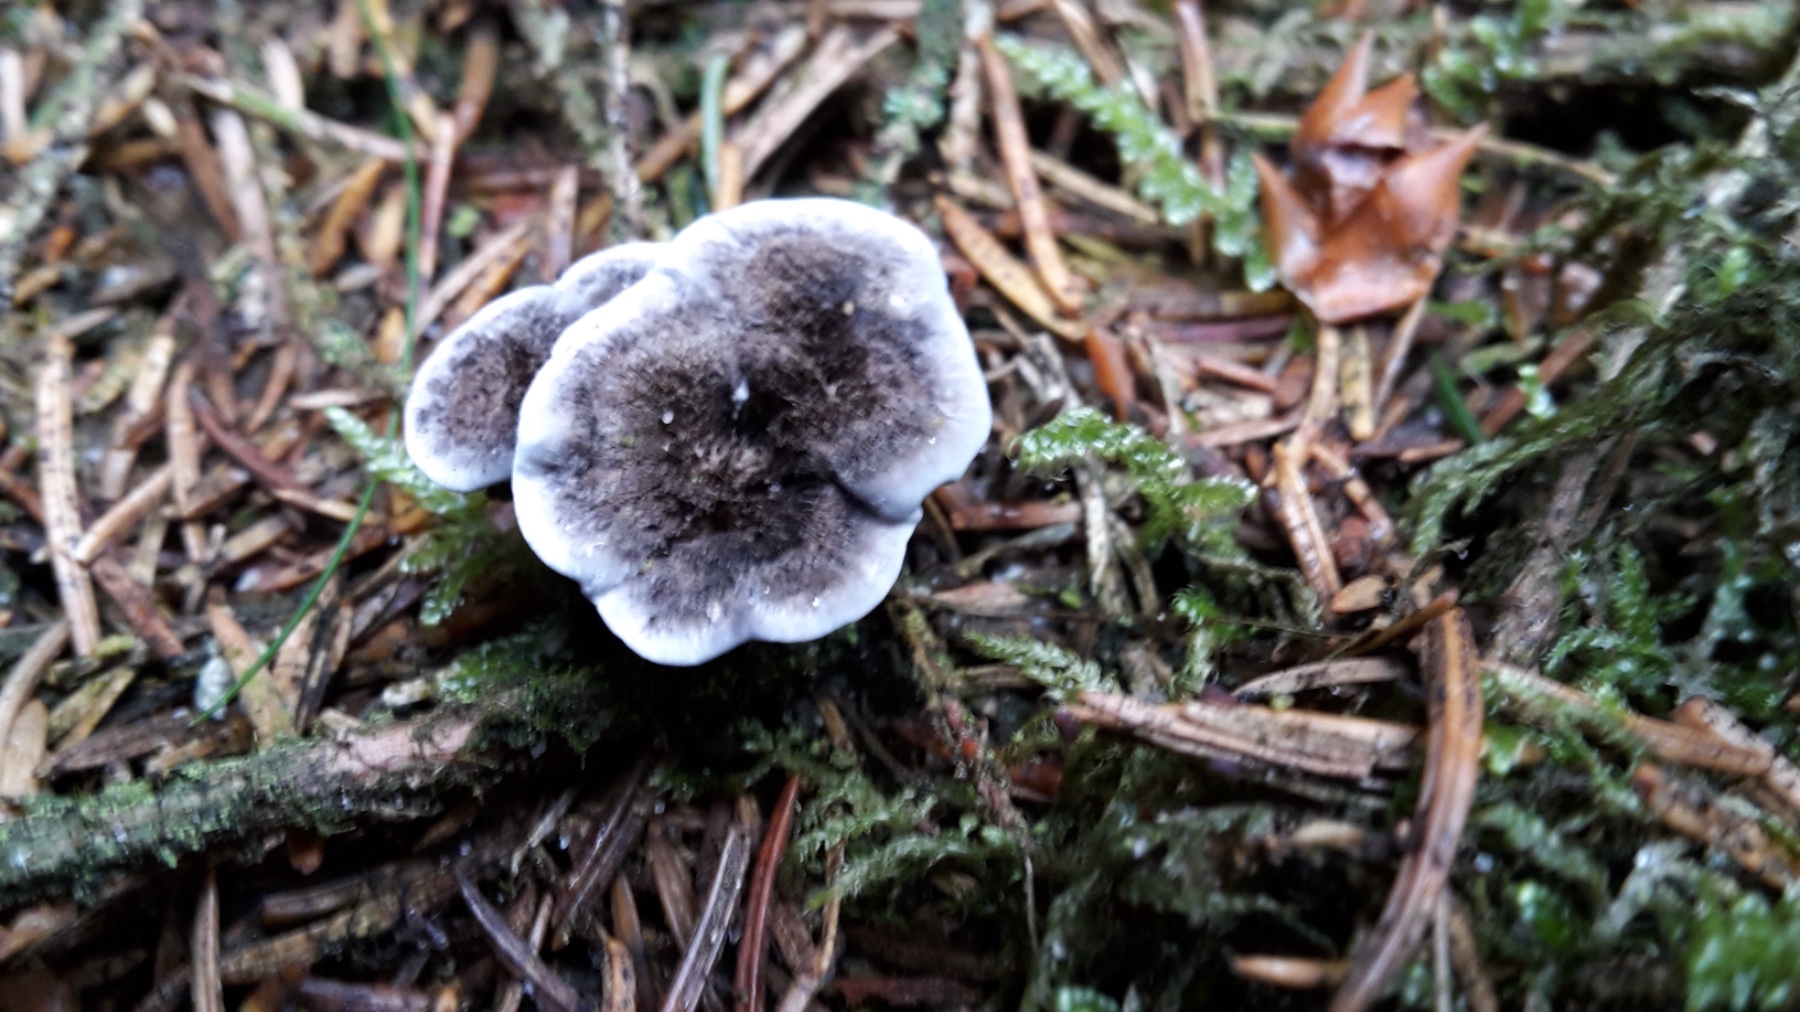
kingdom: Fungi
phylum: Basidiomycota
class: Agaricomycetes
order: Thelephorales
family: Thelephoraceae
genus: Phellodon
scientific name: Phellodon
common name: mørk duftpigsvamp
